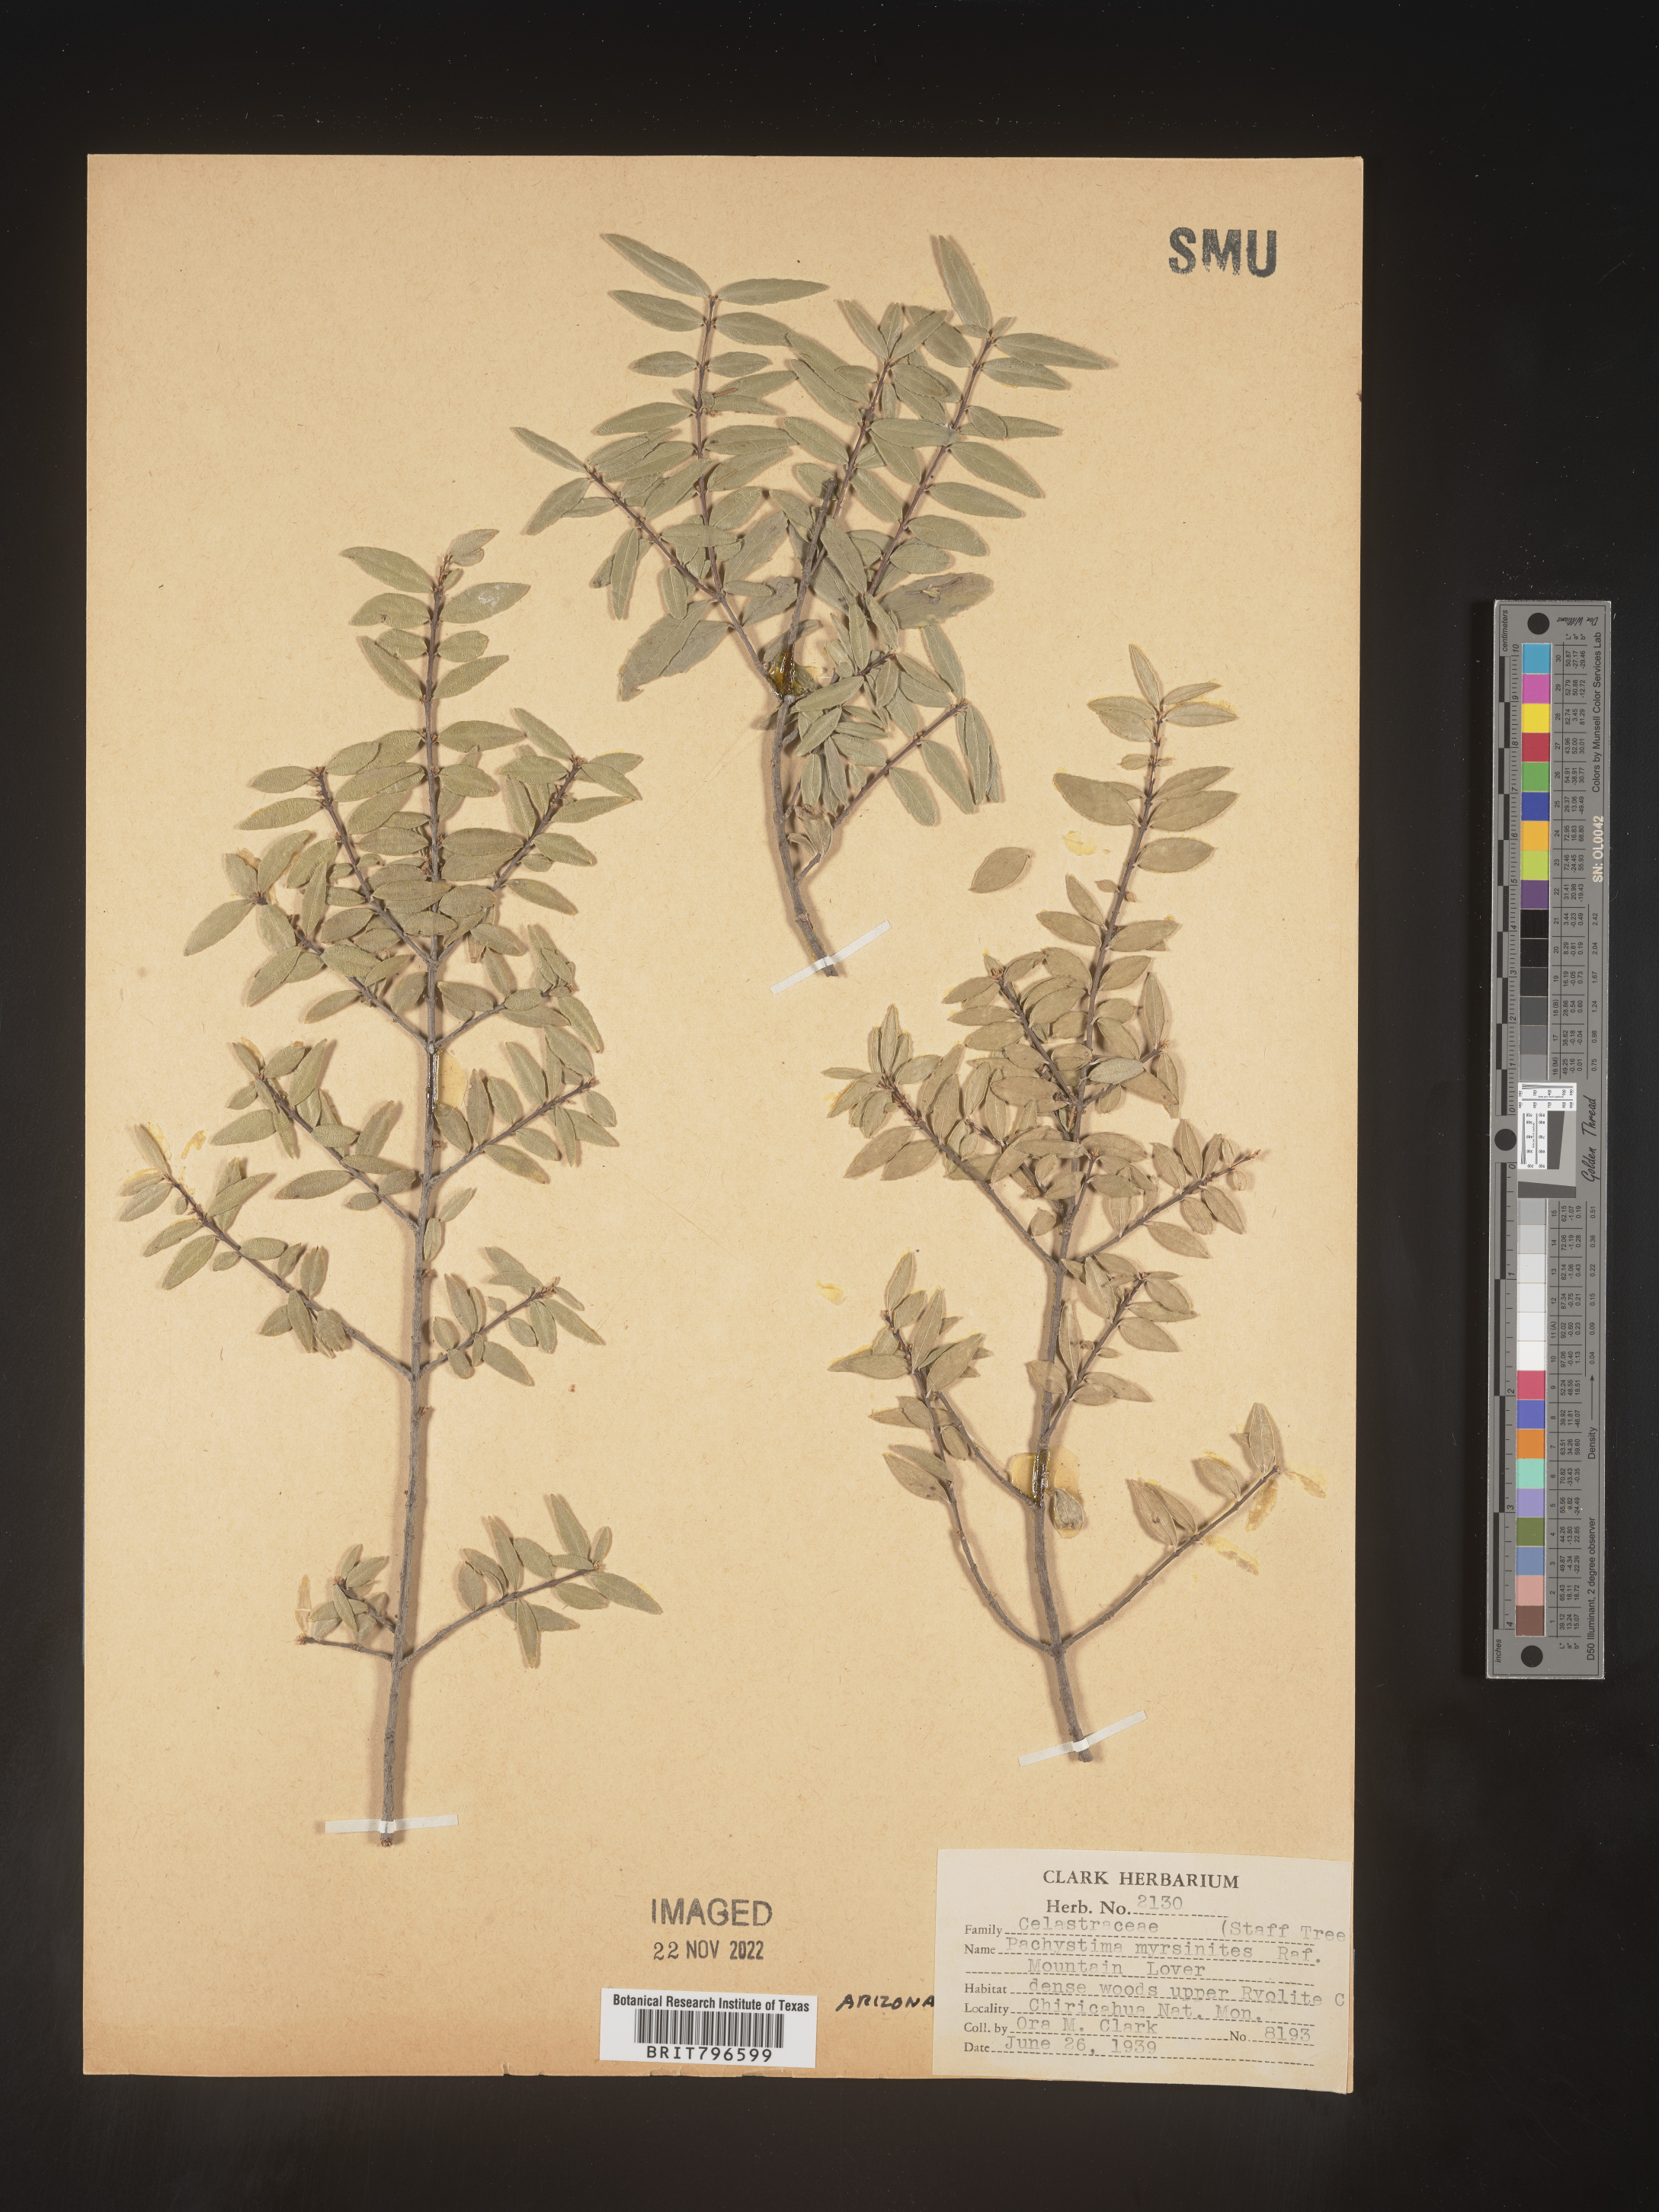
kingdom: Plantae
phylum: Tracheophyta
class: Magnoliopsida
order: Celastrales
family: Celastraceae
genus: Paxistima
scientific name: Paxistima myrsinites
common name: Mountain-lover
